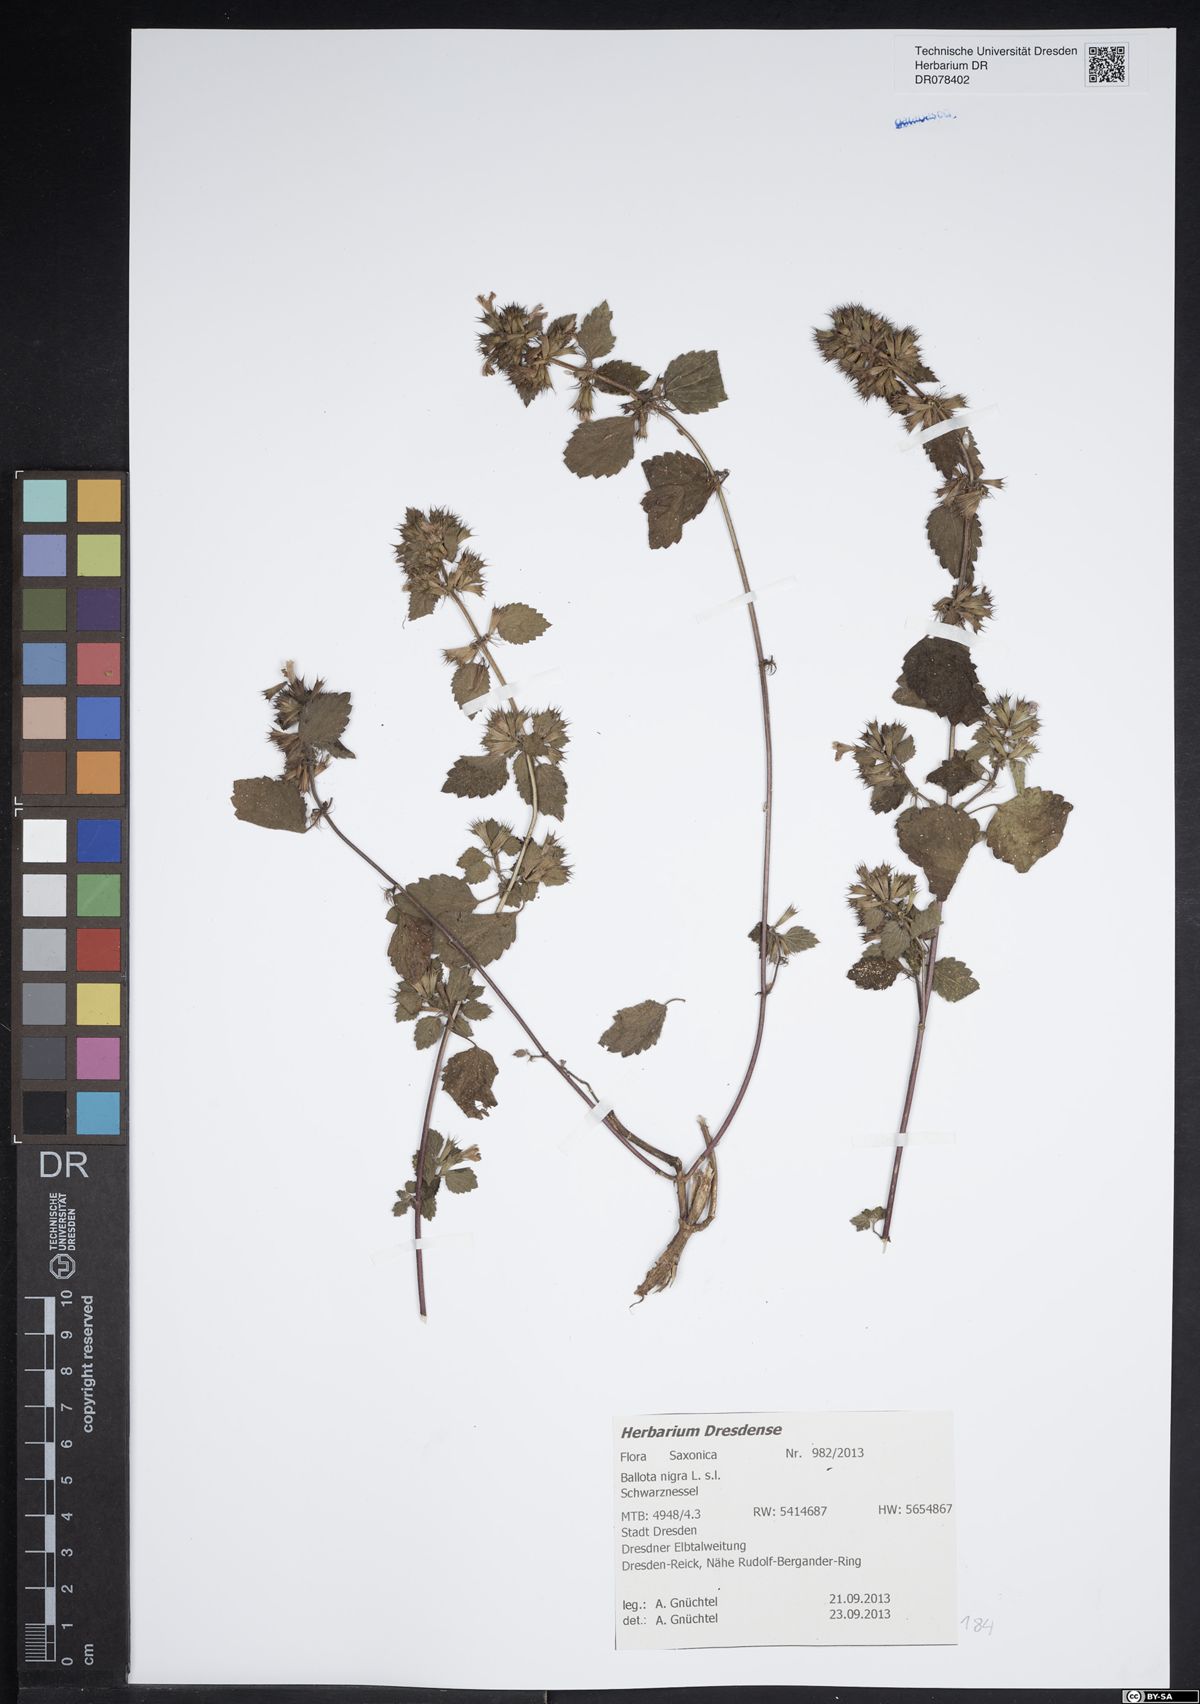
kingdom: Plantae
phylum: Tracheophyta
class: Magnoliopsida
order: Lamiales
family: Lamiaceae
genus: Ballota
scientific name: Ballota nigra
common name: Black horehound
